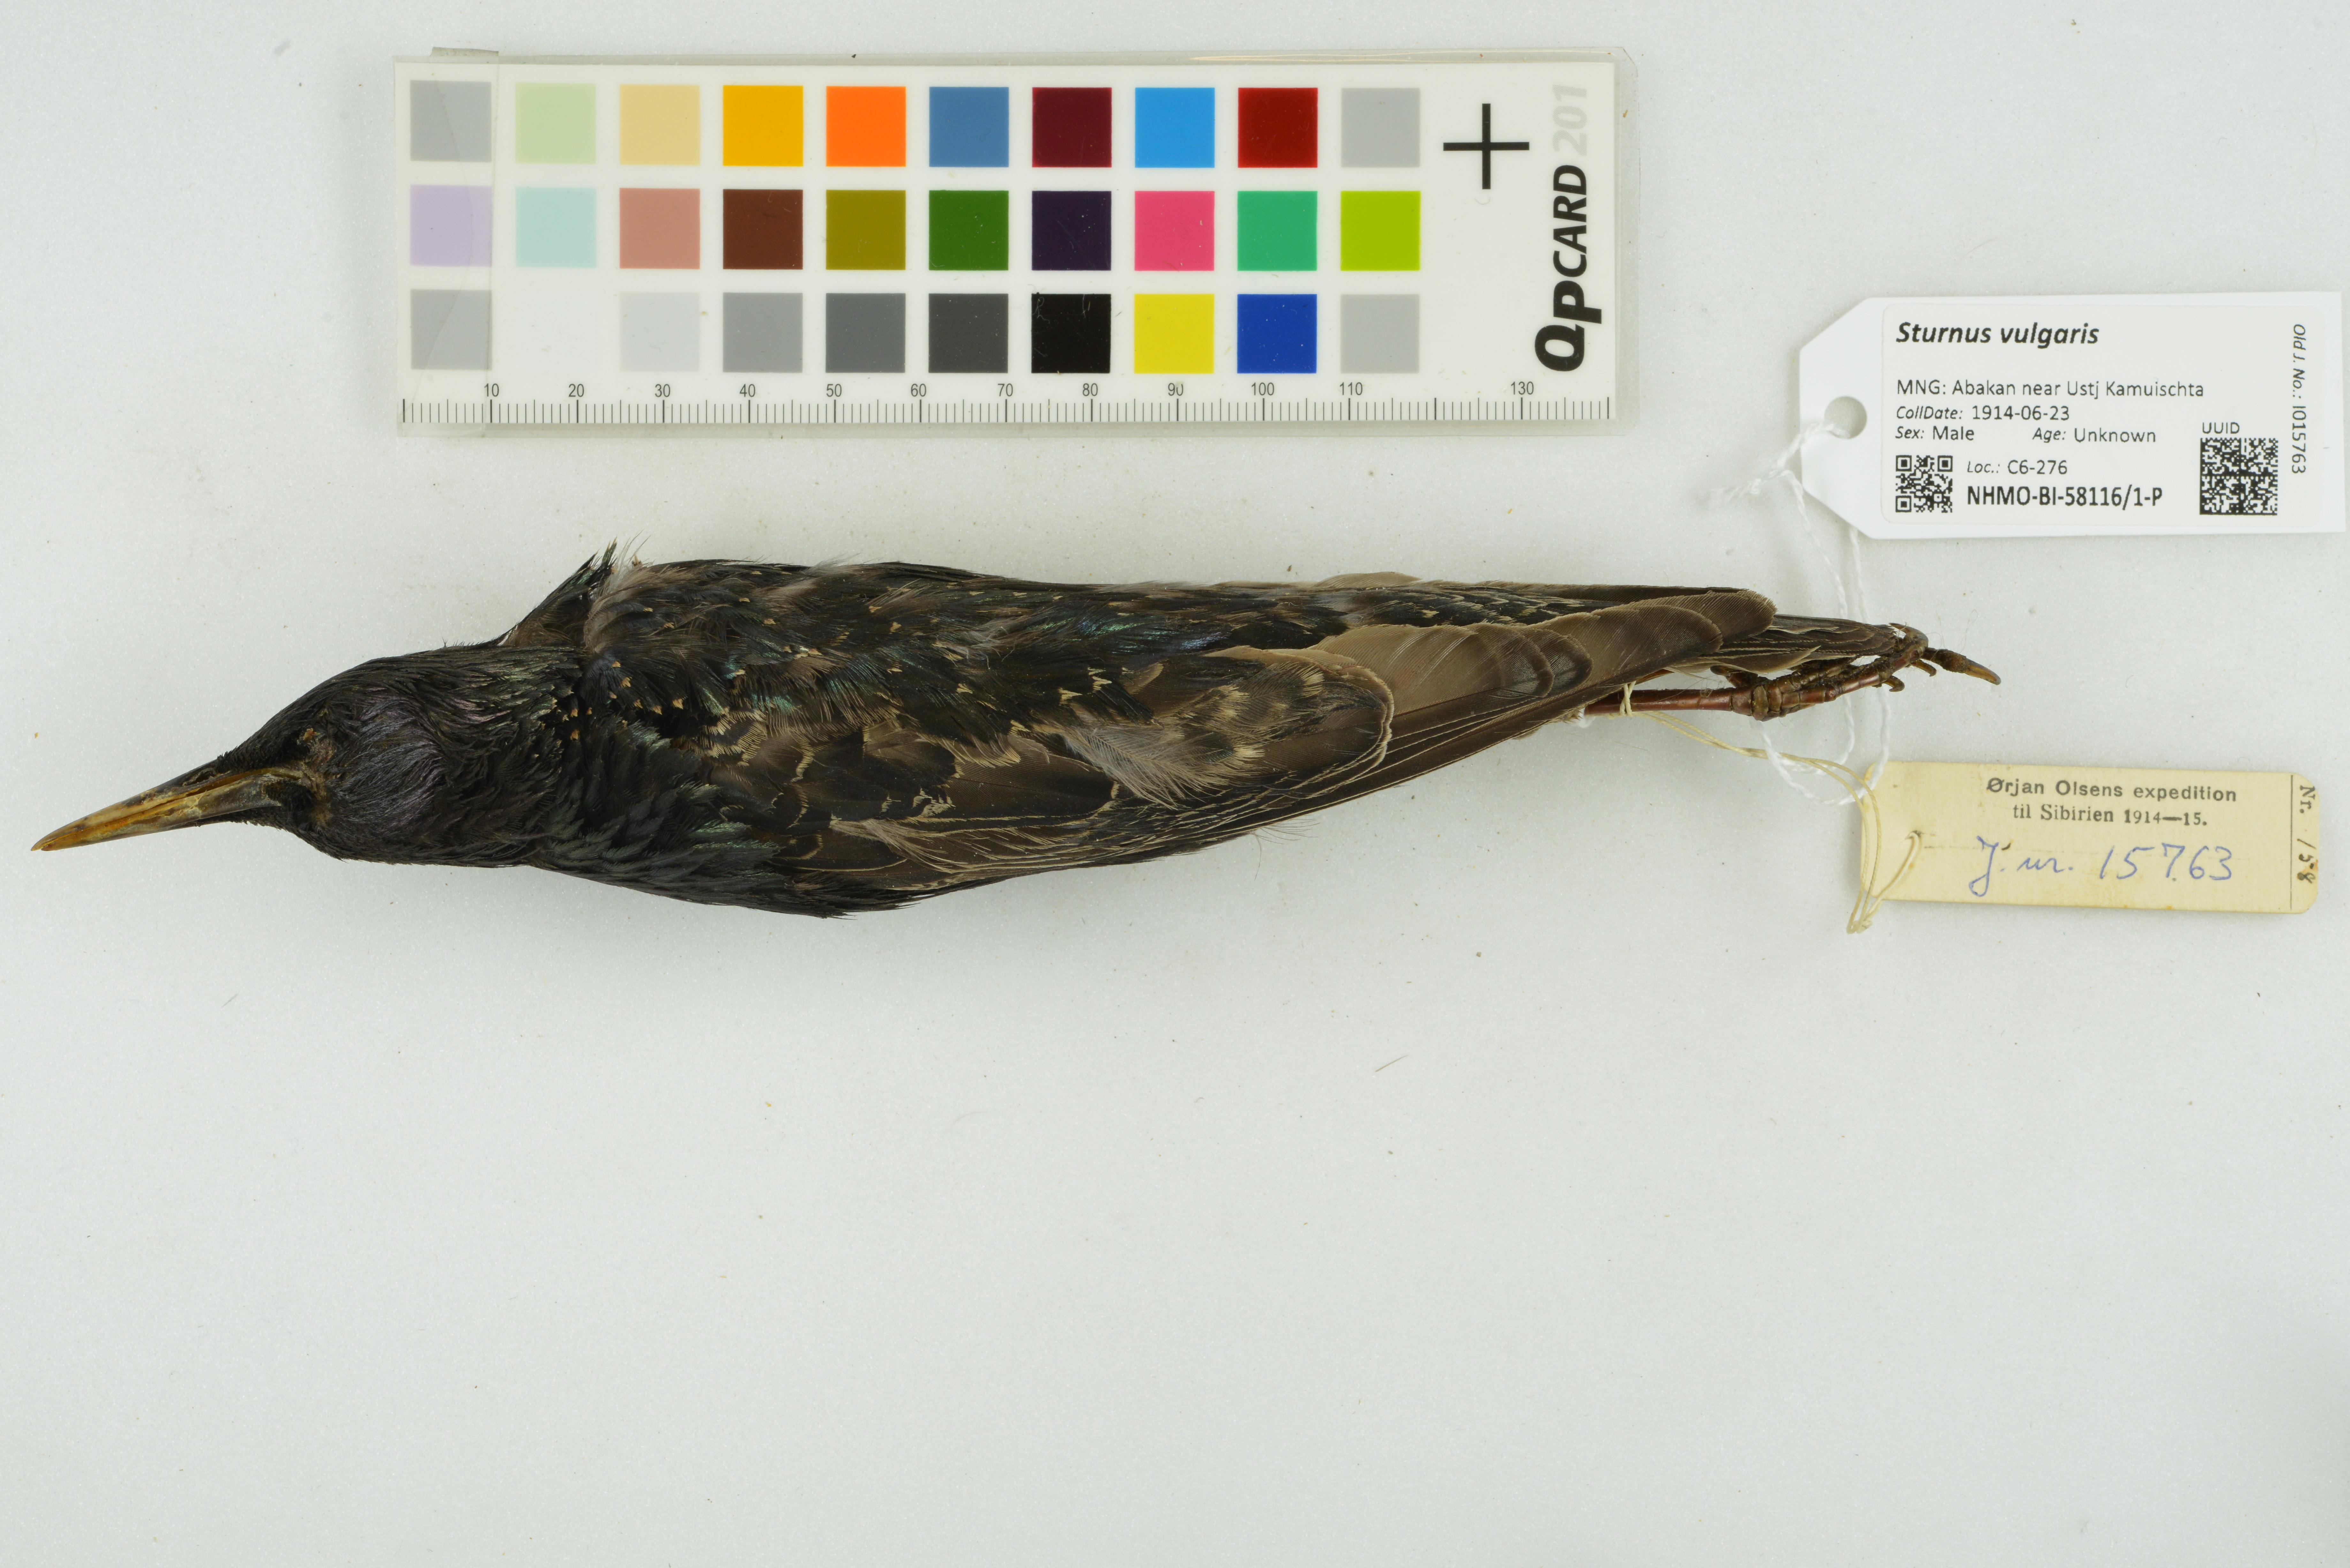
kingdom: Animalia
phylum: Chordata
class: Aves
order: Passeriformes
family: Sturnidae
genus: Sturnus
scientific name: Sturnus vulgaris
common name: Common starling
